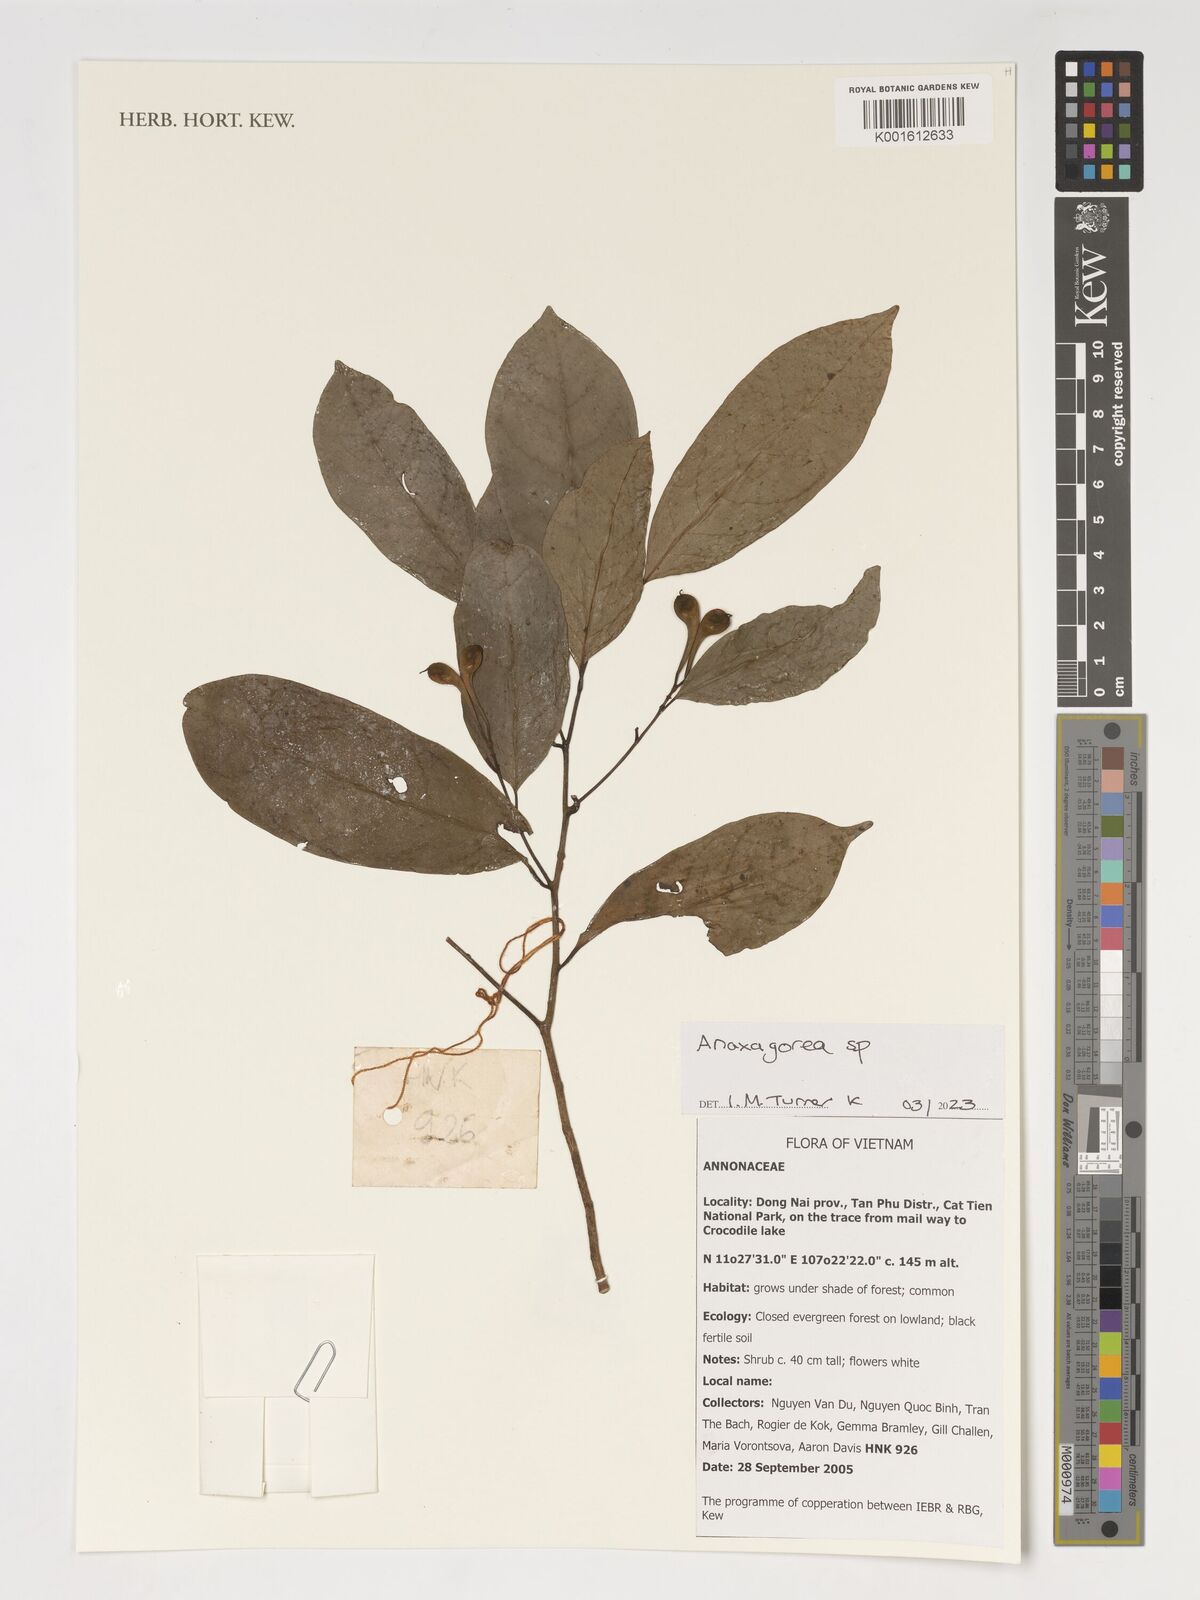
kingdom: Plantae
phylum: Tracheophyta
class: Magnoliopsida
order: Magnoliales
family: Annonaceae
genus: Anaxagorea
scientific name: Anaxagorea
